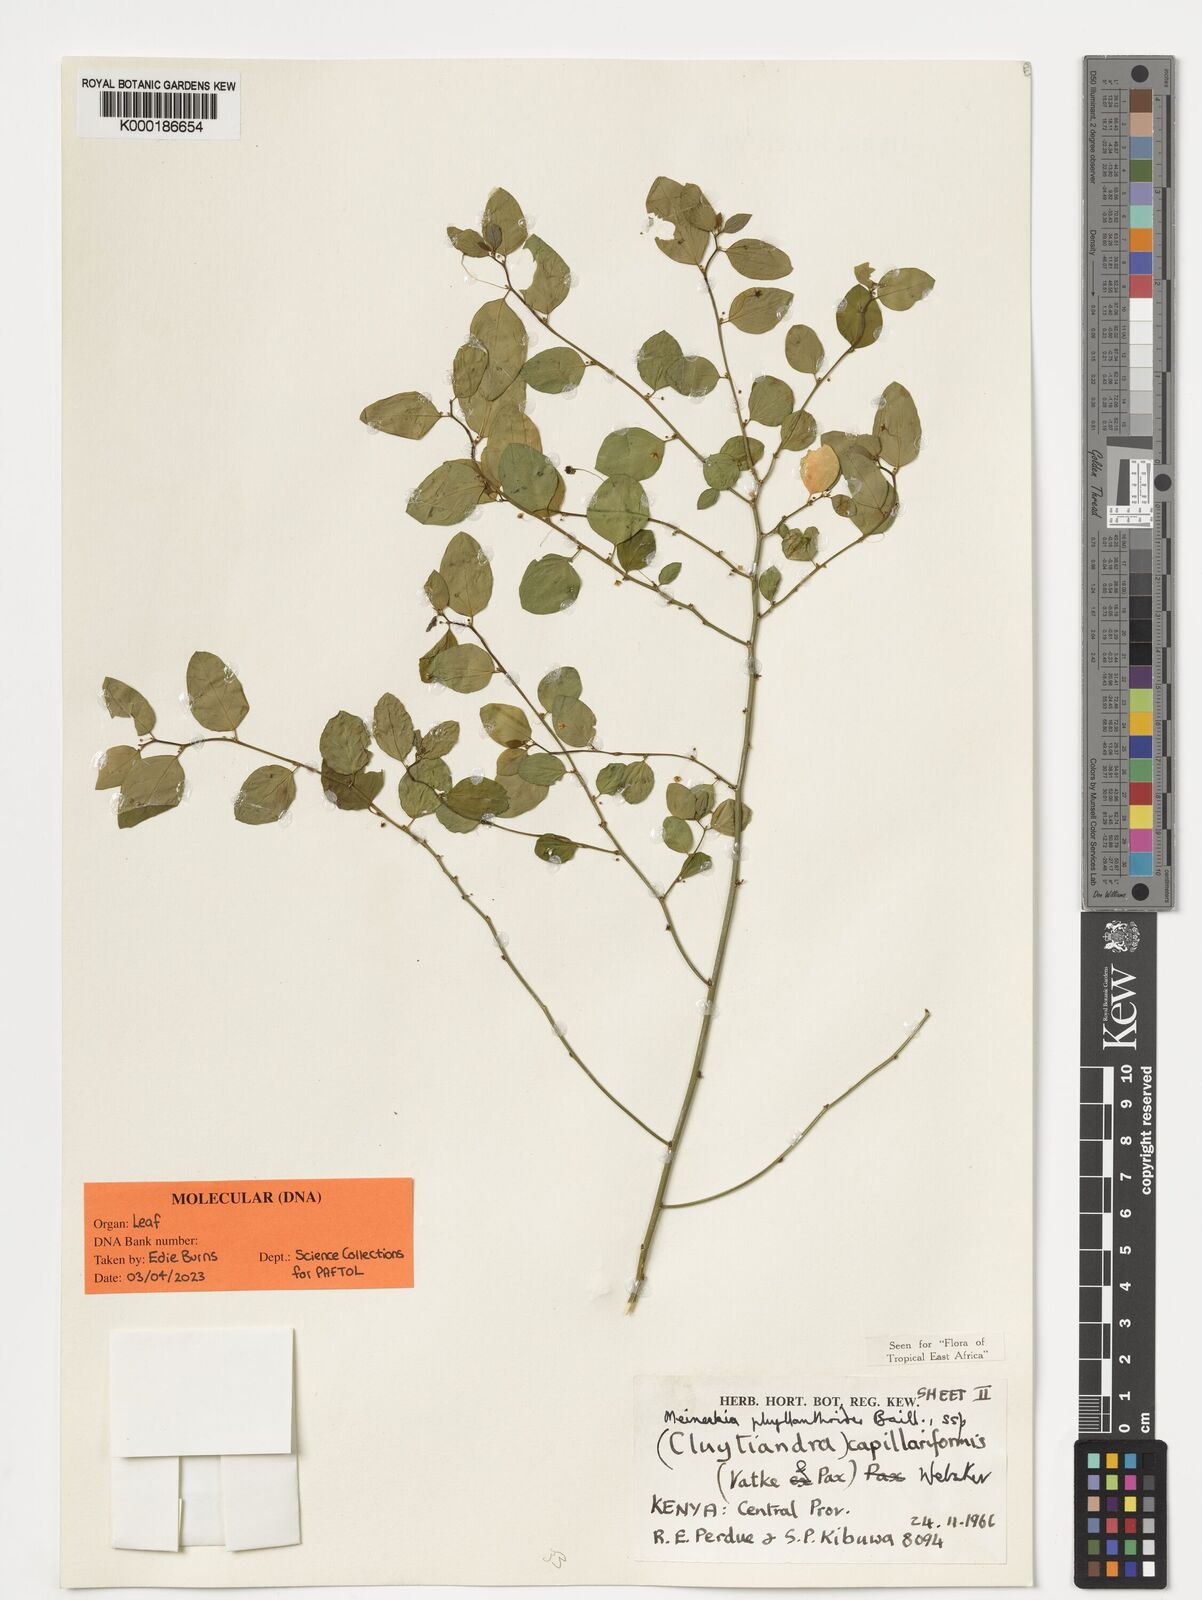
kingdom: Plantae
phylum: Tracheophyta
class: Magnoliopsida
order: Malpighiales
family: Phyllanthaceae
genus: Meineckia
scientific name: Meineckia phyllanthoides
